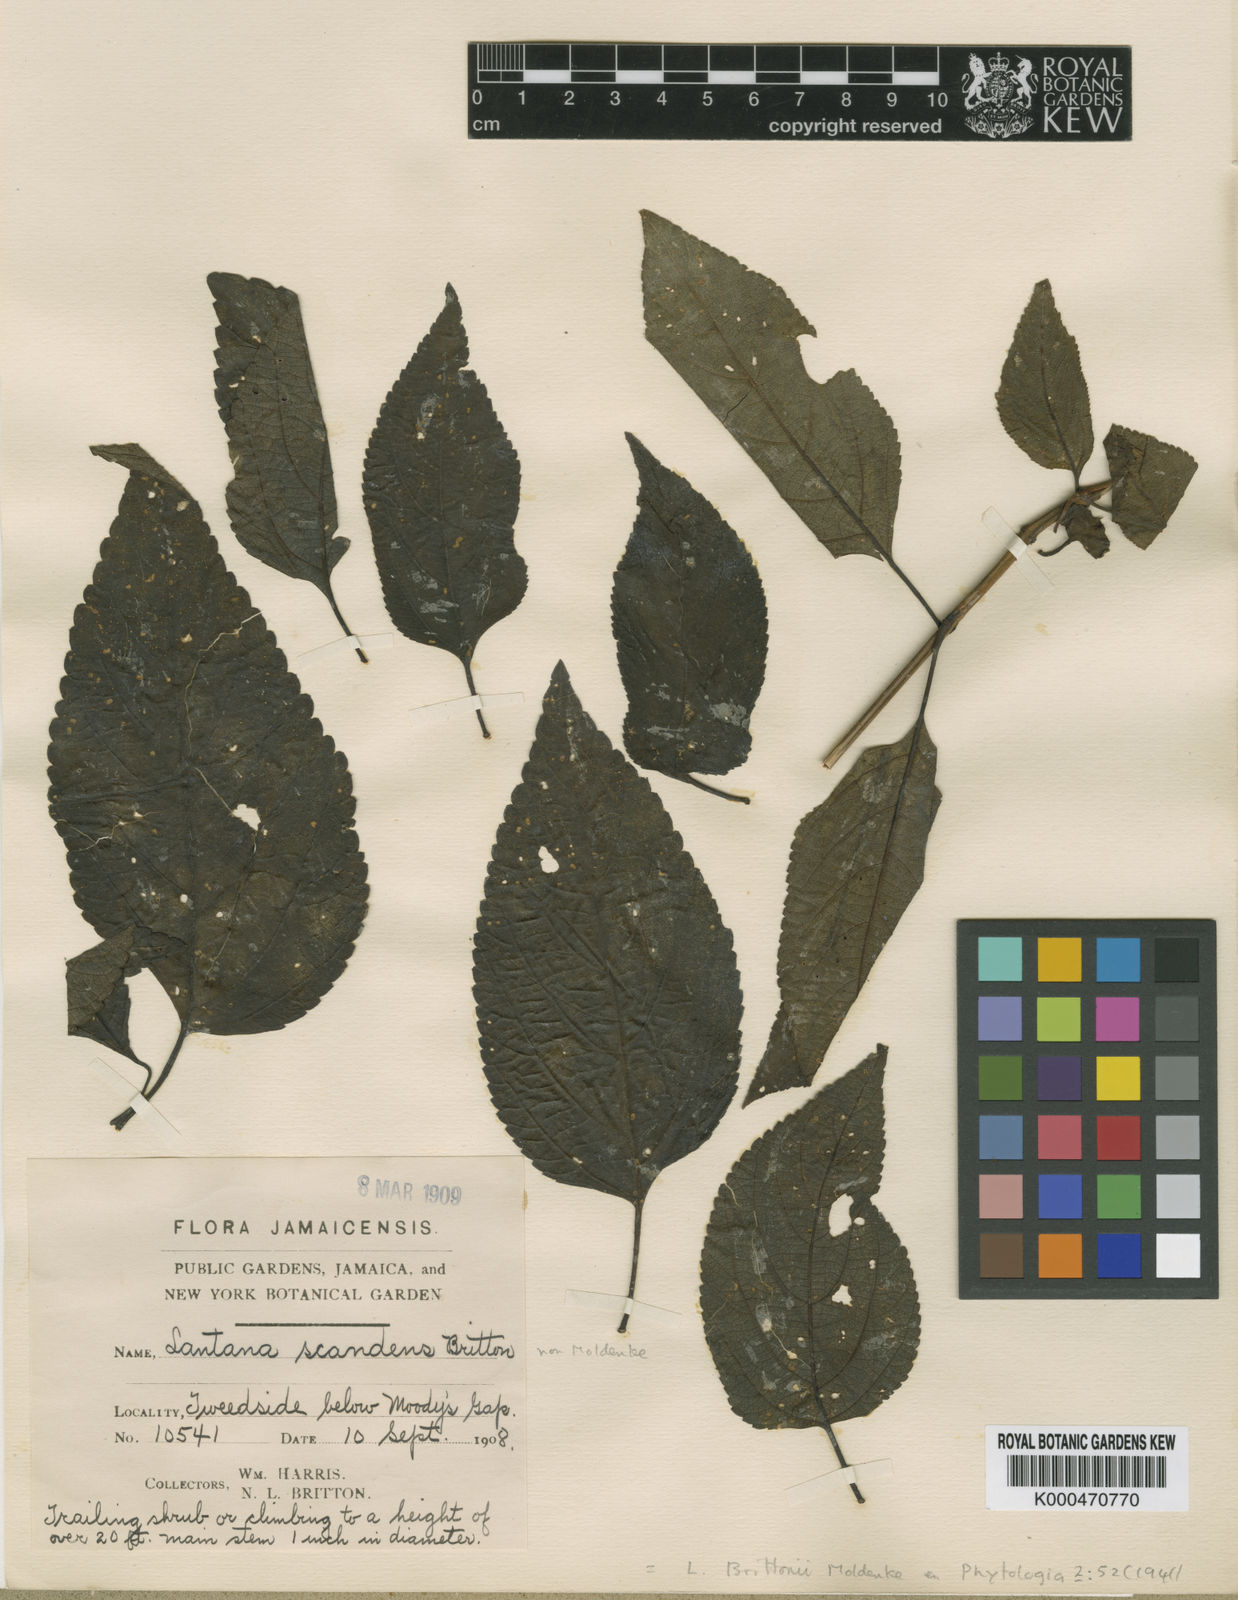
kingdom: Plantae
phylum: Tracheophyta
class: Magnoliopsida
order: Lamiales
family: Verbenaceae
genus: Lantana
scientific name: Lantana scabrida
